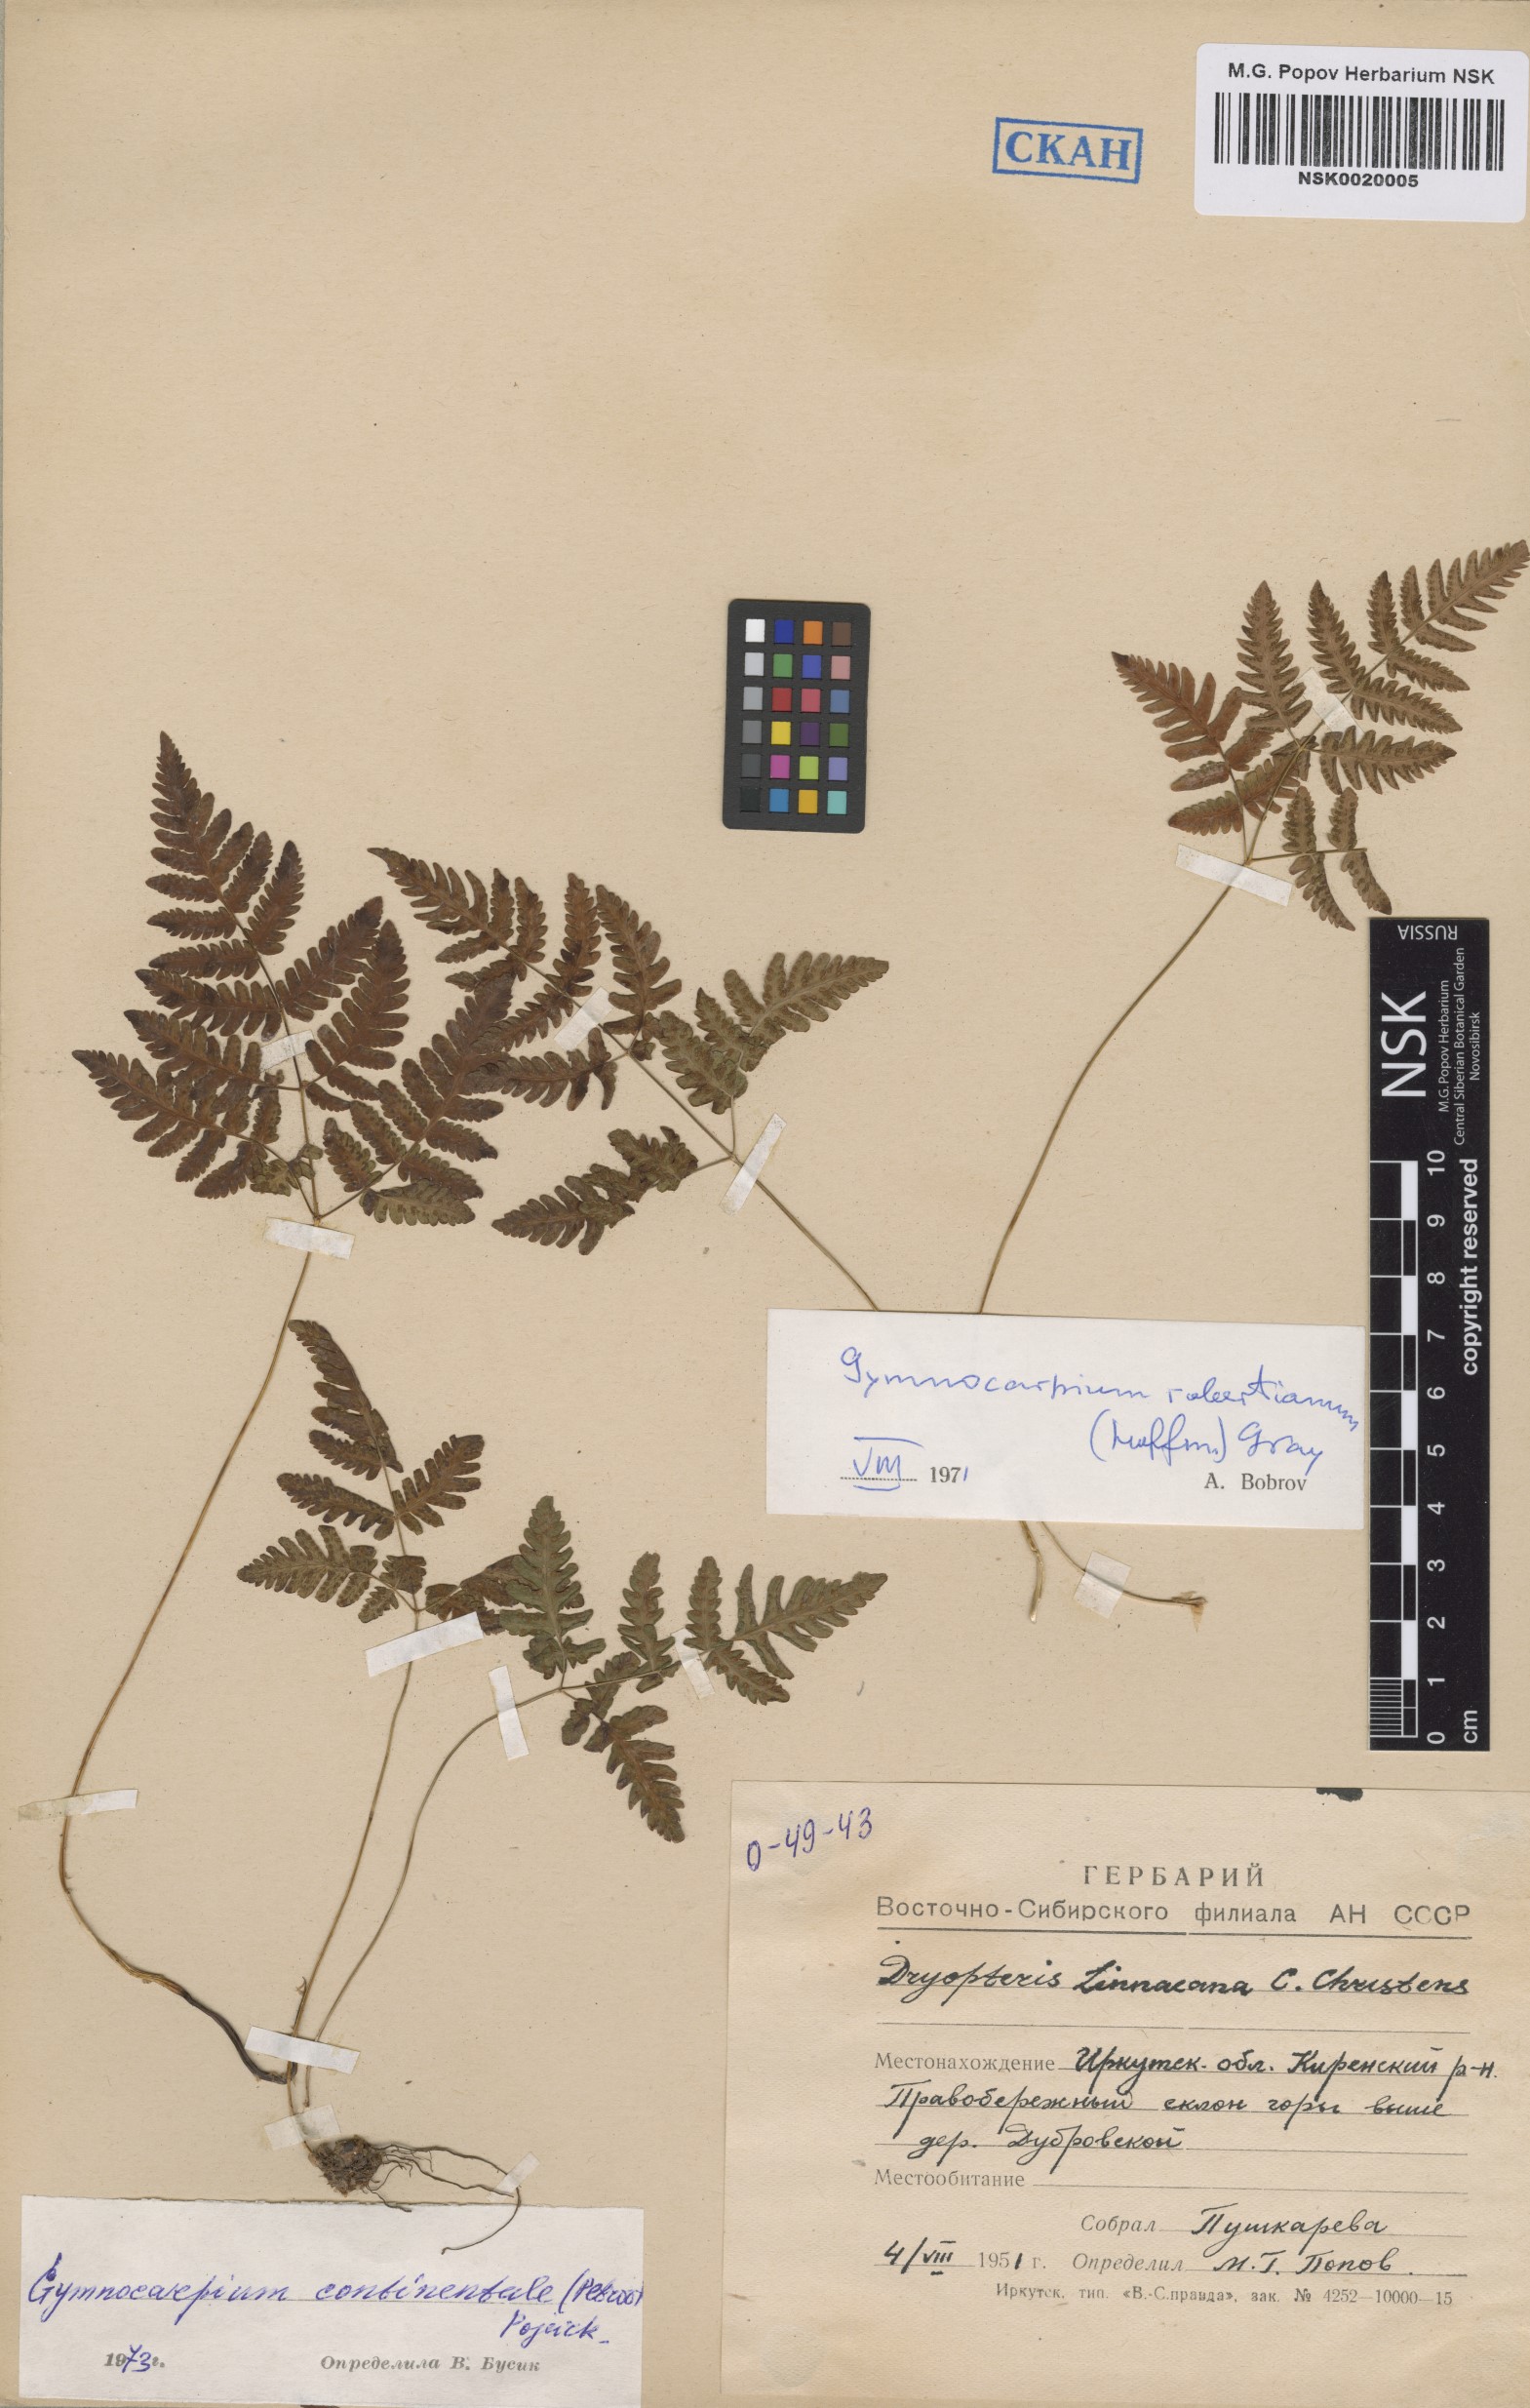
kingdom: Plantae
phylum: Tracheophyta
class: Polypodiopsida
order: Polypodiales
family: Cystopteridaceae
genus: Gymnocarpium
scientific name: Gymnocarpium continentale
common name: Asian oak fern
